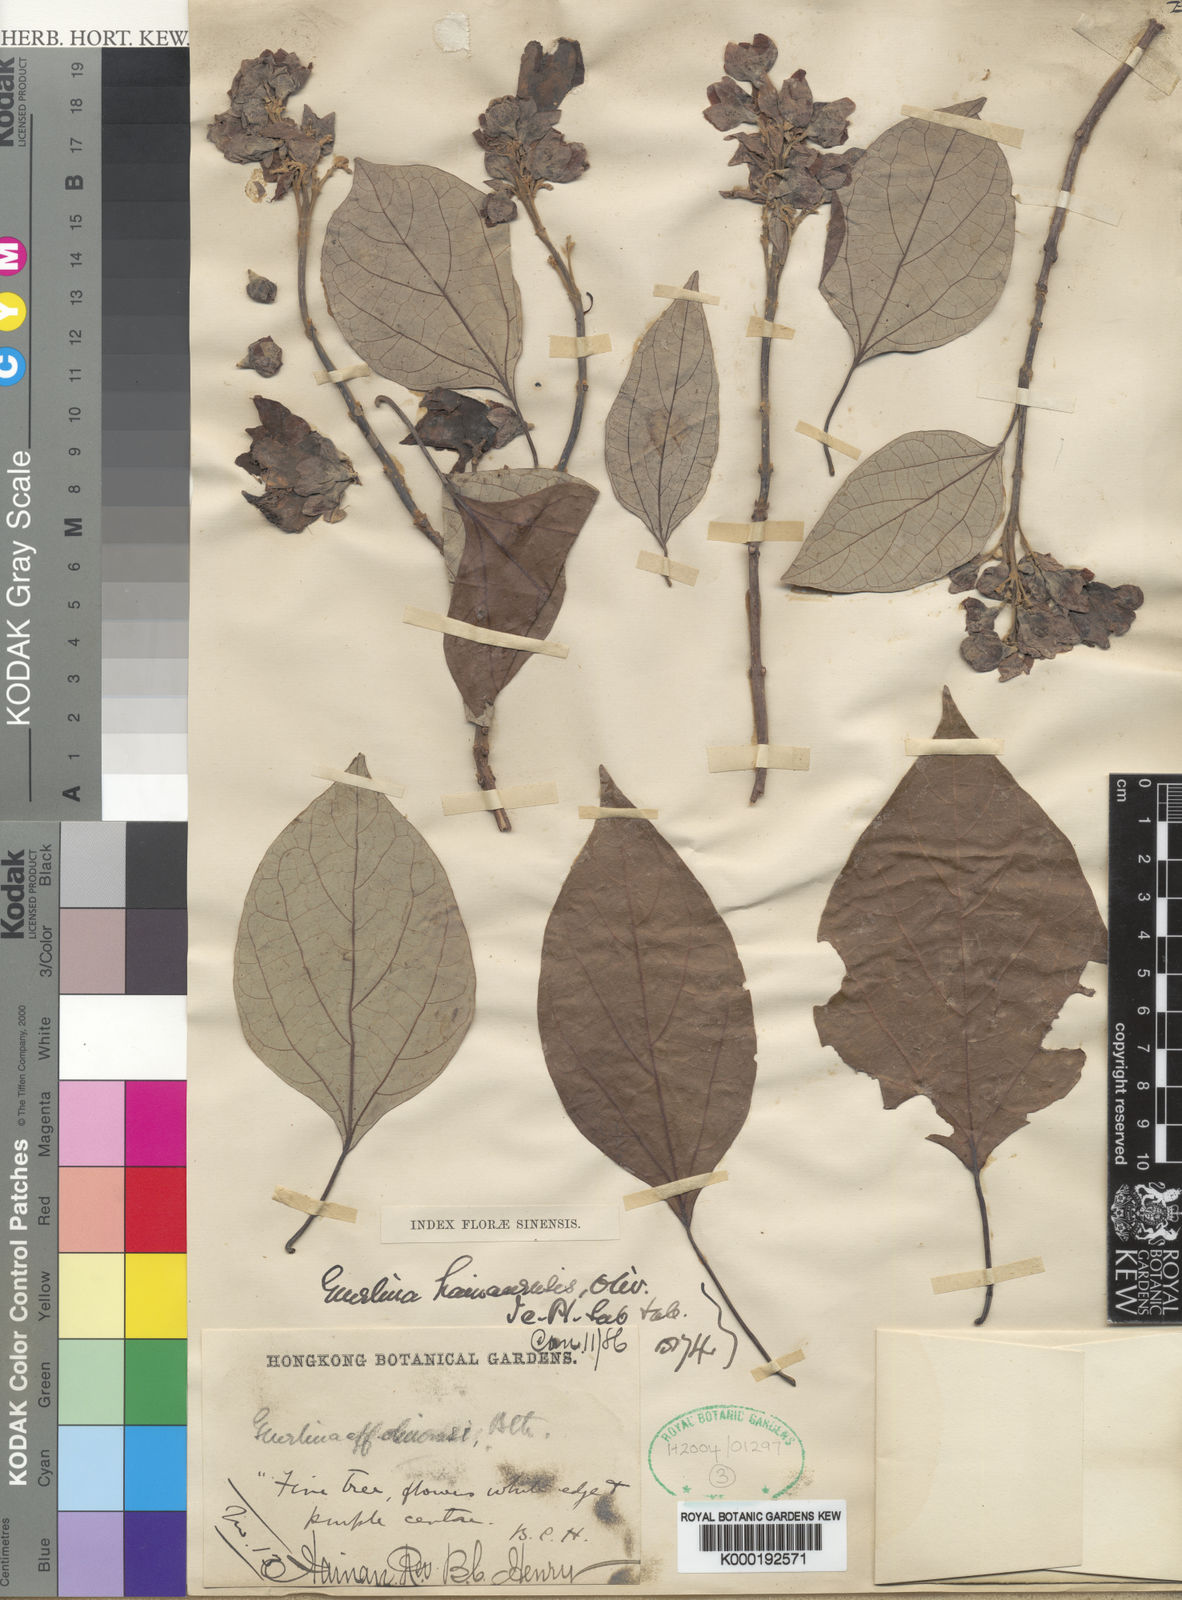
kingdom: Plantae
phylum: Tracheophyta
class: Magnoliopsida
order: Lamiales
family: Lamiaceae
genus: Gmelina
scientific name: Gmelina racemosa
